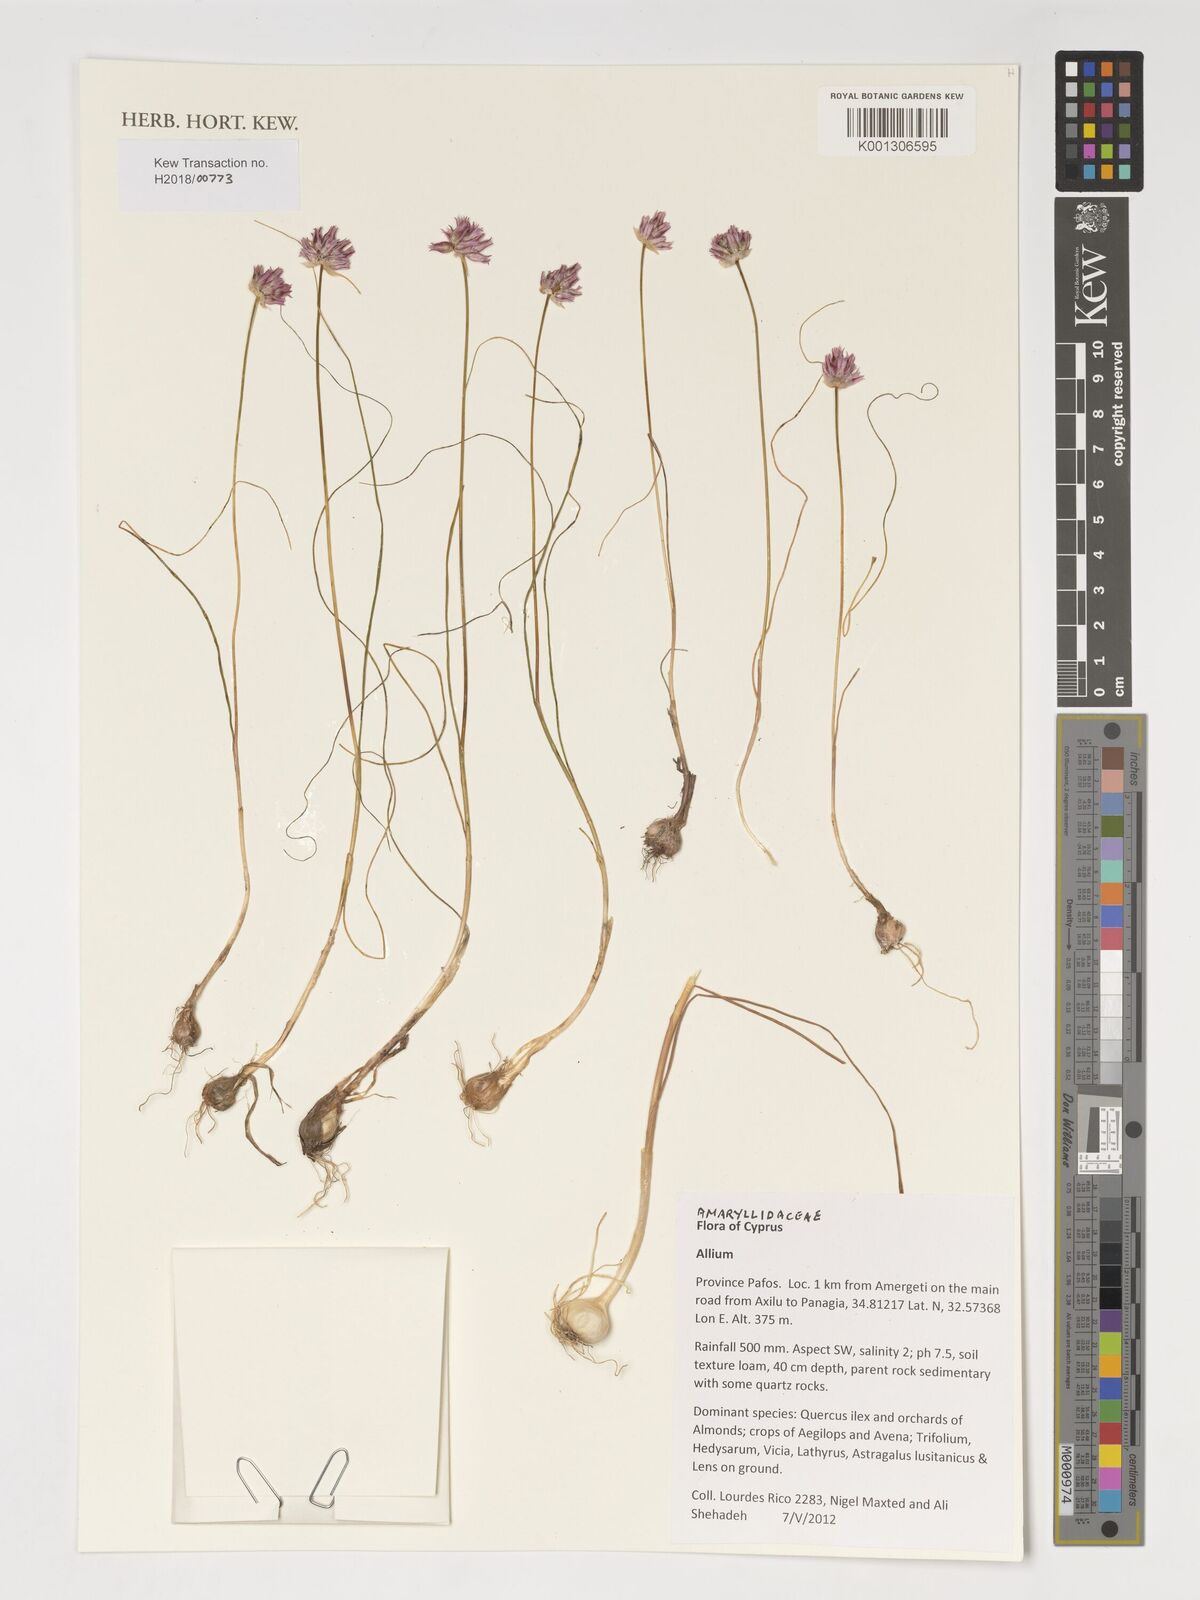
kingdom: Plantae
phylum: Tracheophyta
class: Liliopsida
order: Asparagales
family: Amaryllidaceae
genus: Allium
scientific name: Allium
